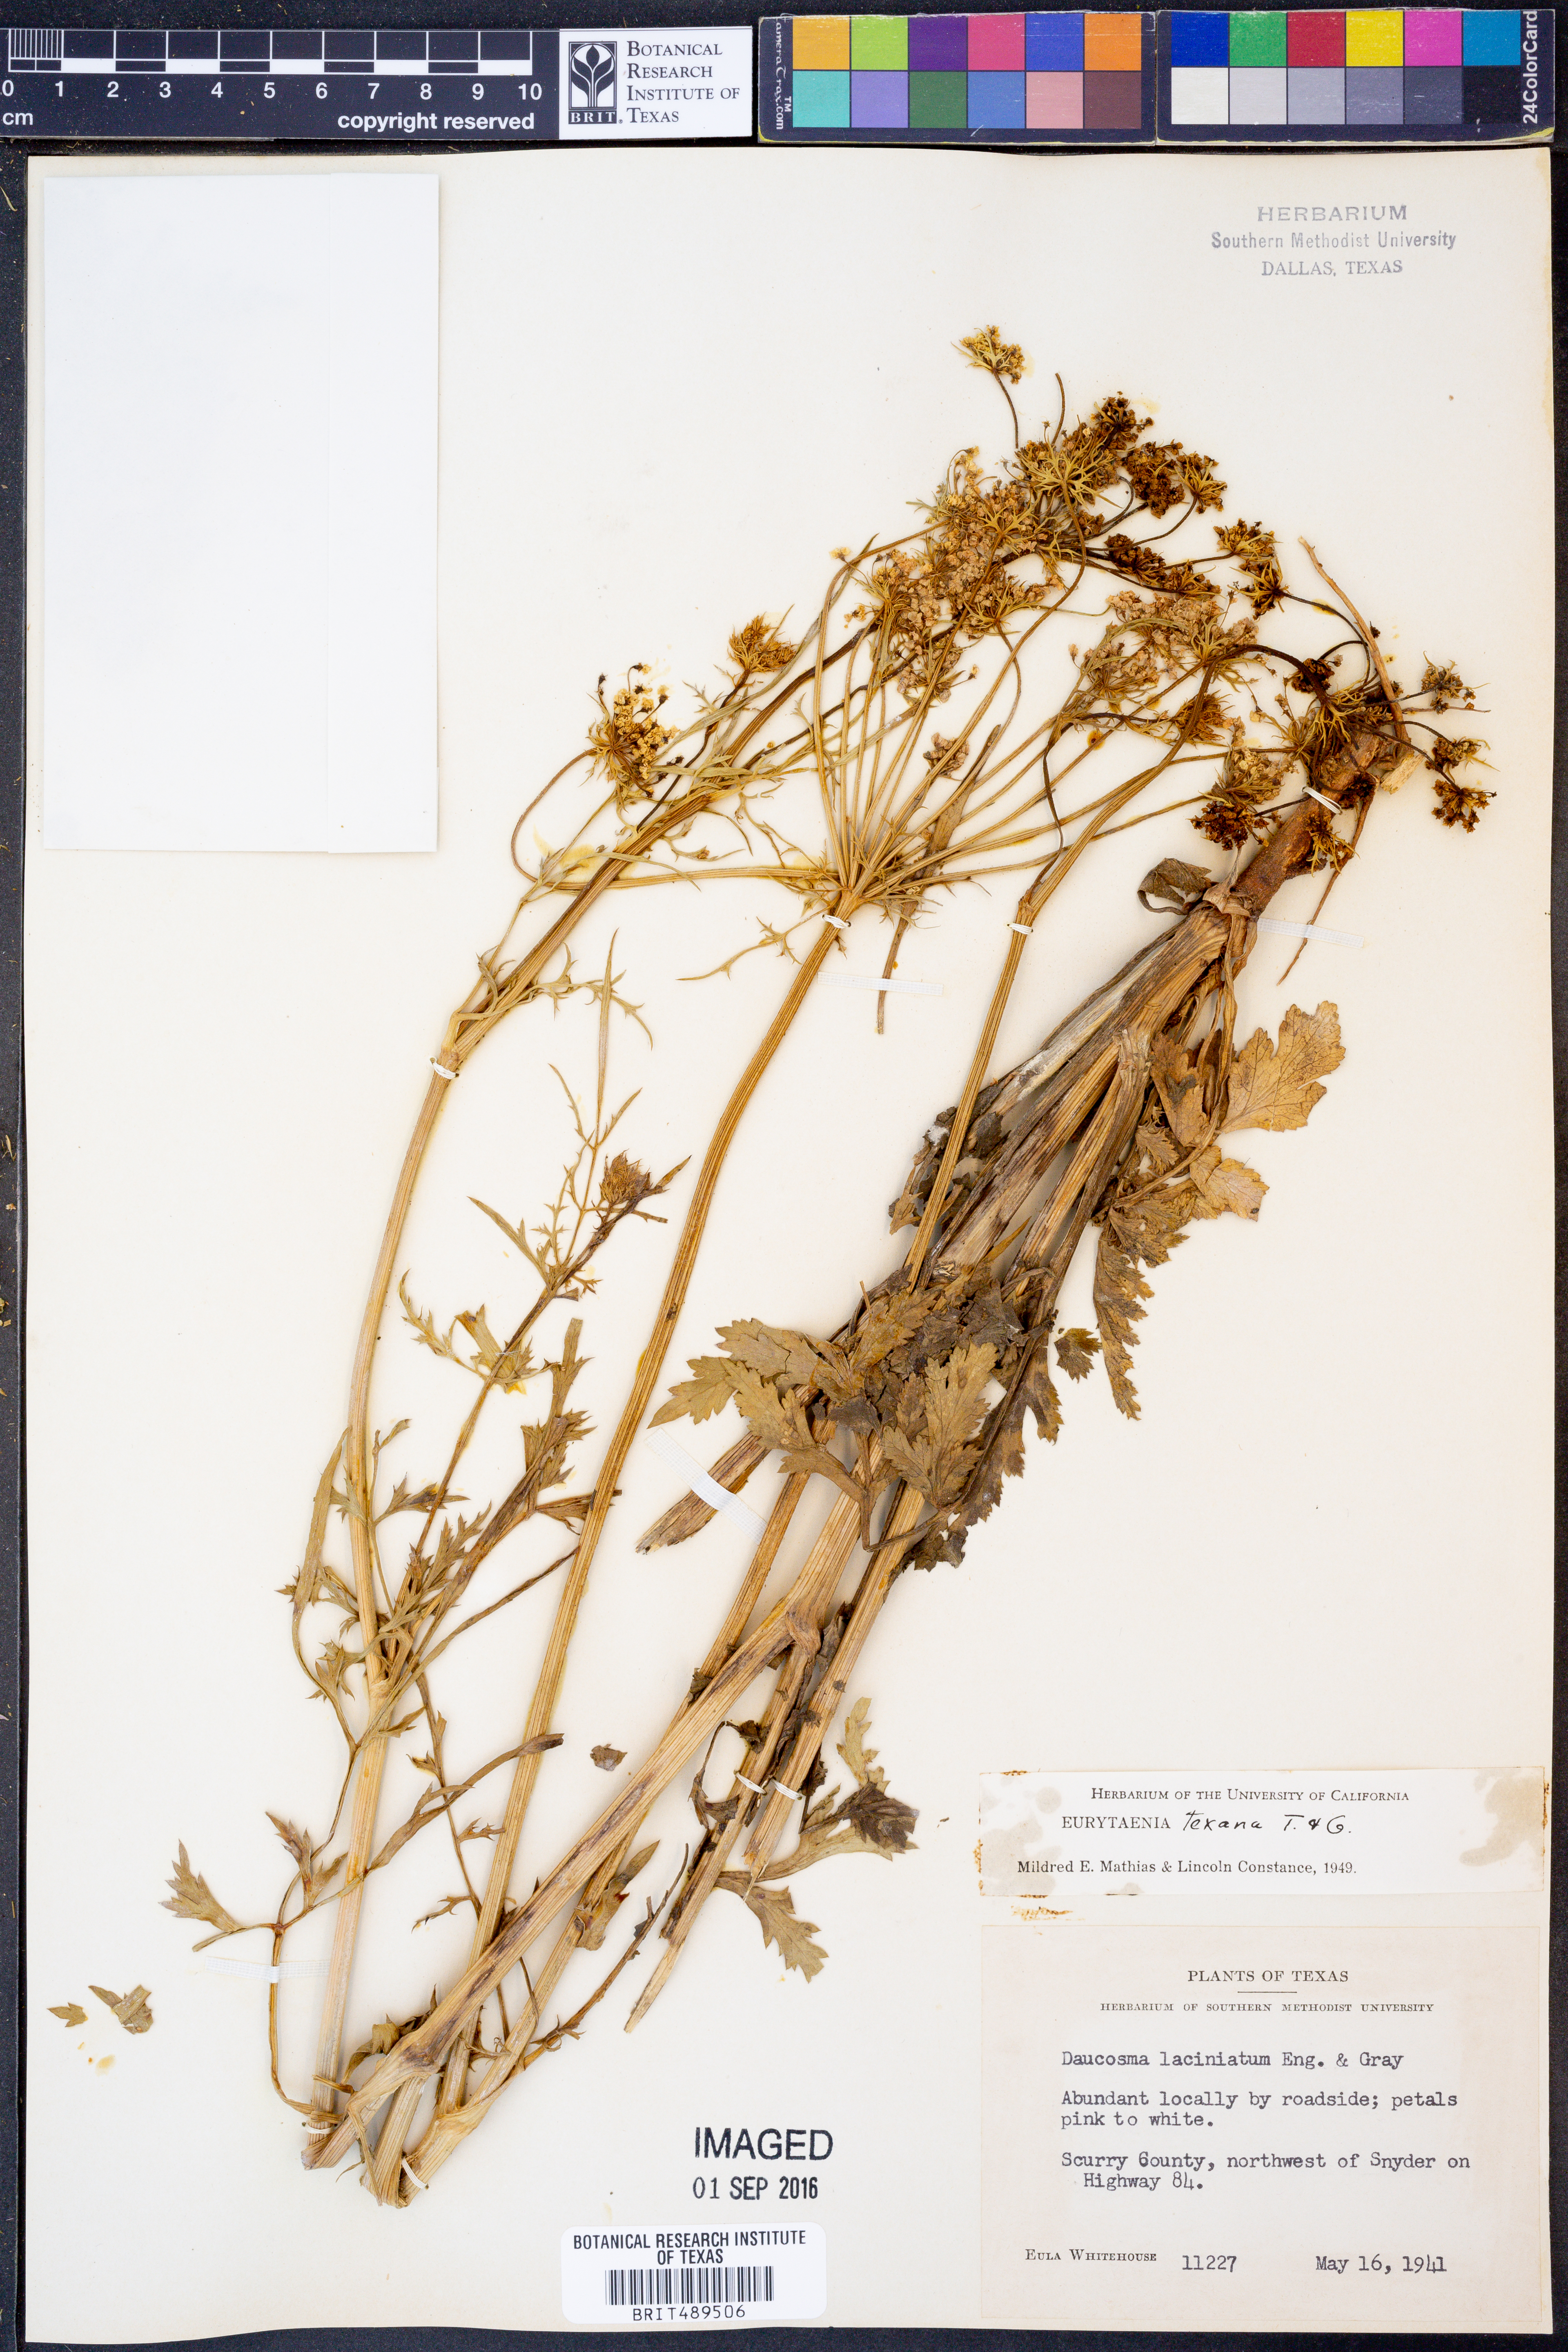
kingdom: Plantae
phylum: Tracheophyta
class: Magnoliopsida
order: Apiales
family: Apiaceae
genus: Eurytaenia
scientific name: Eurytaenia texana
